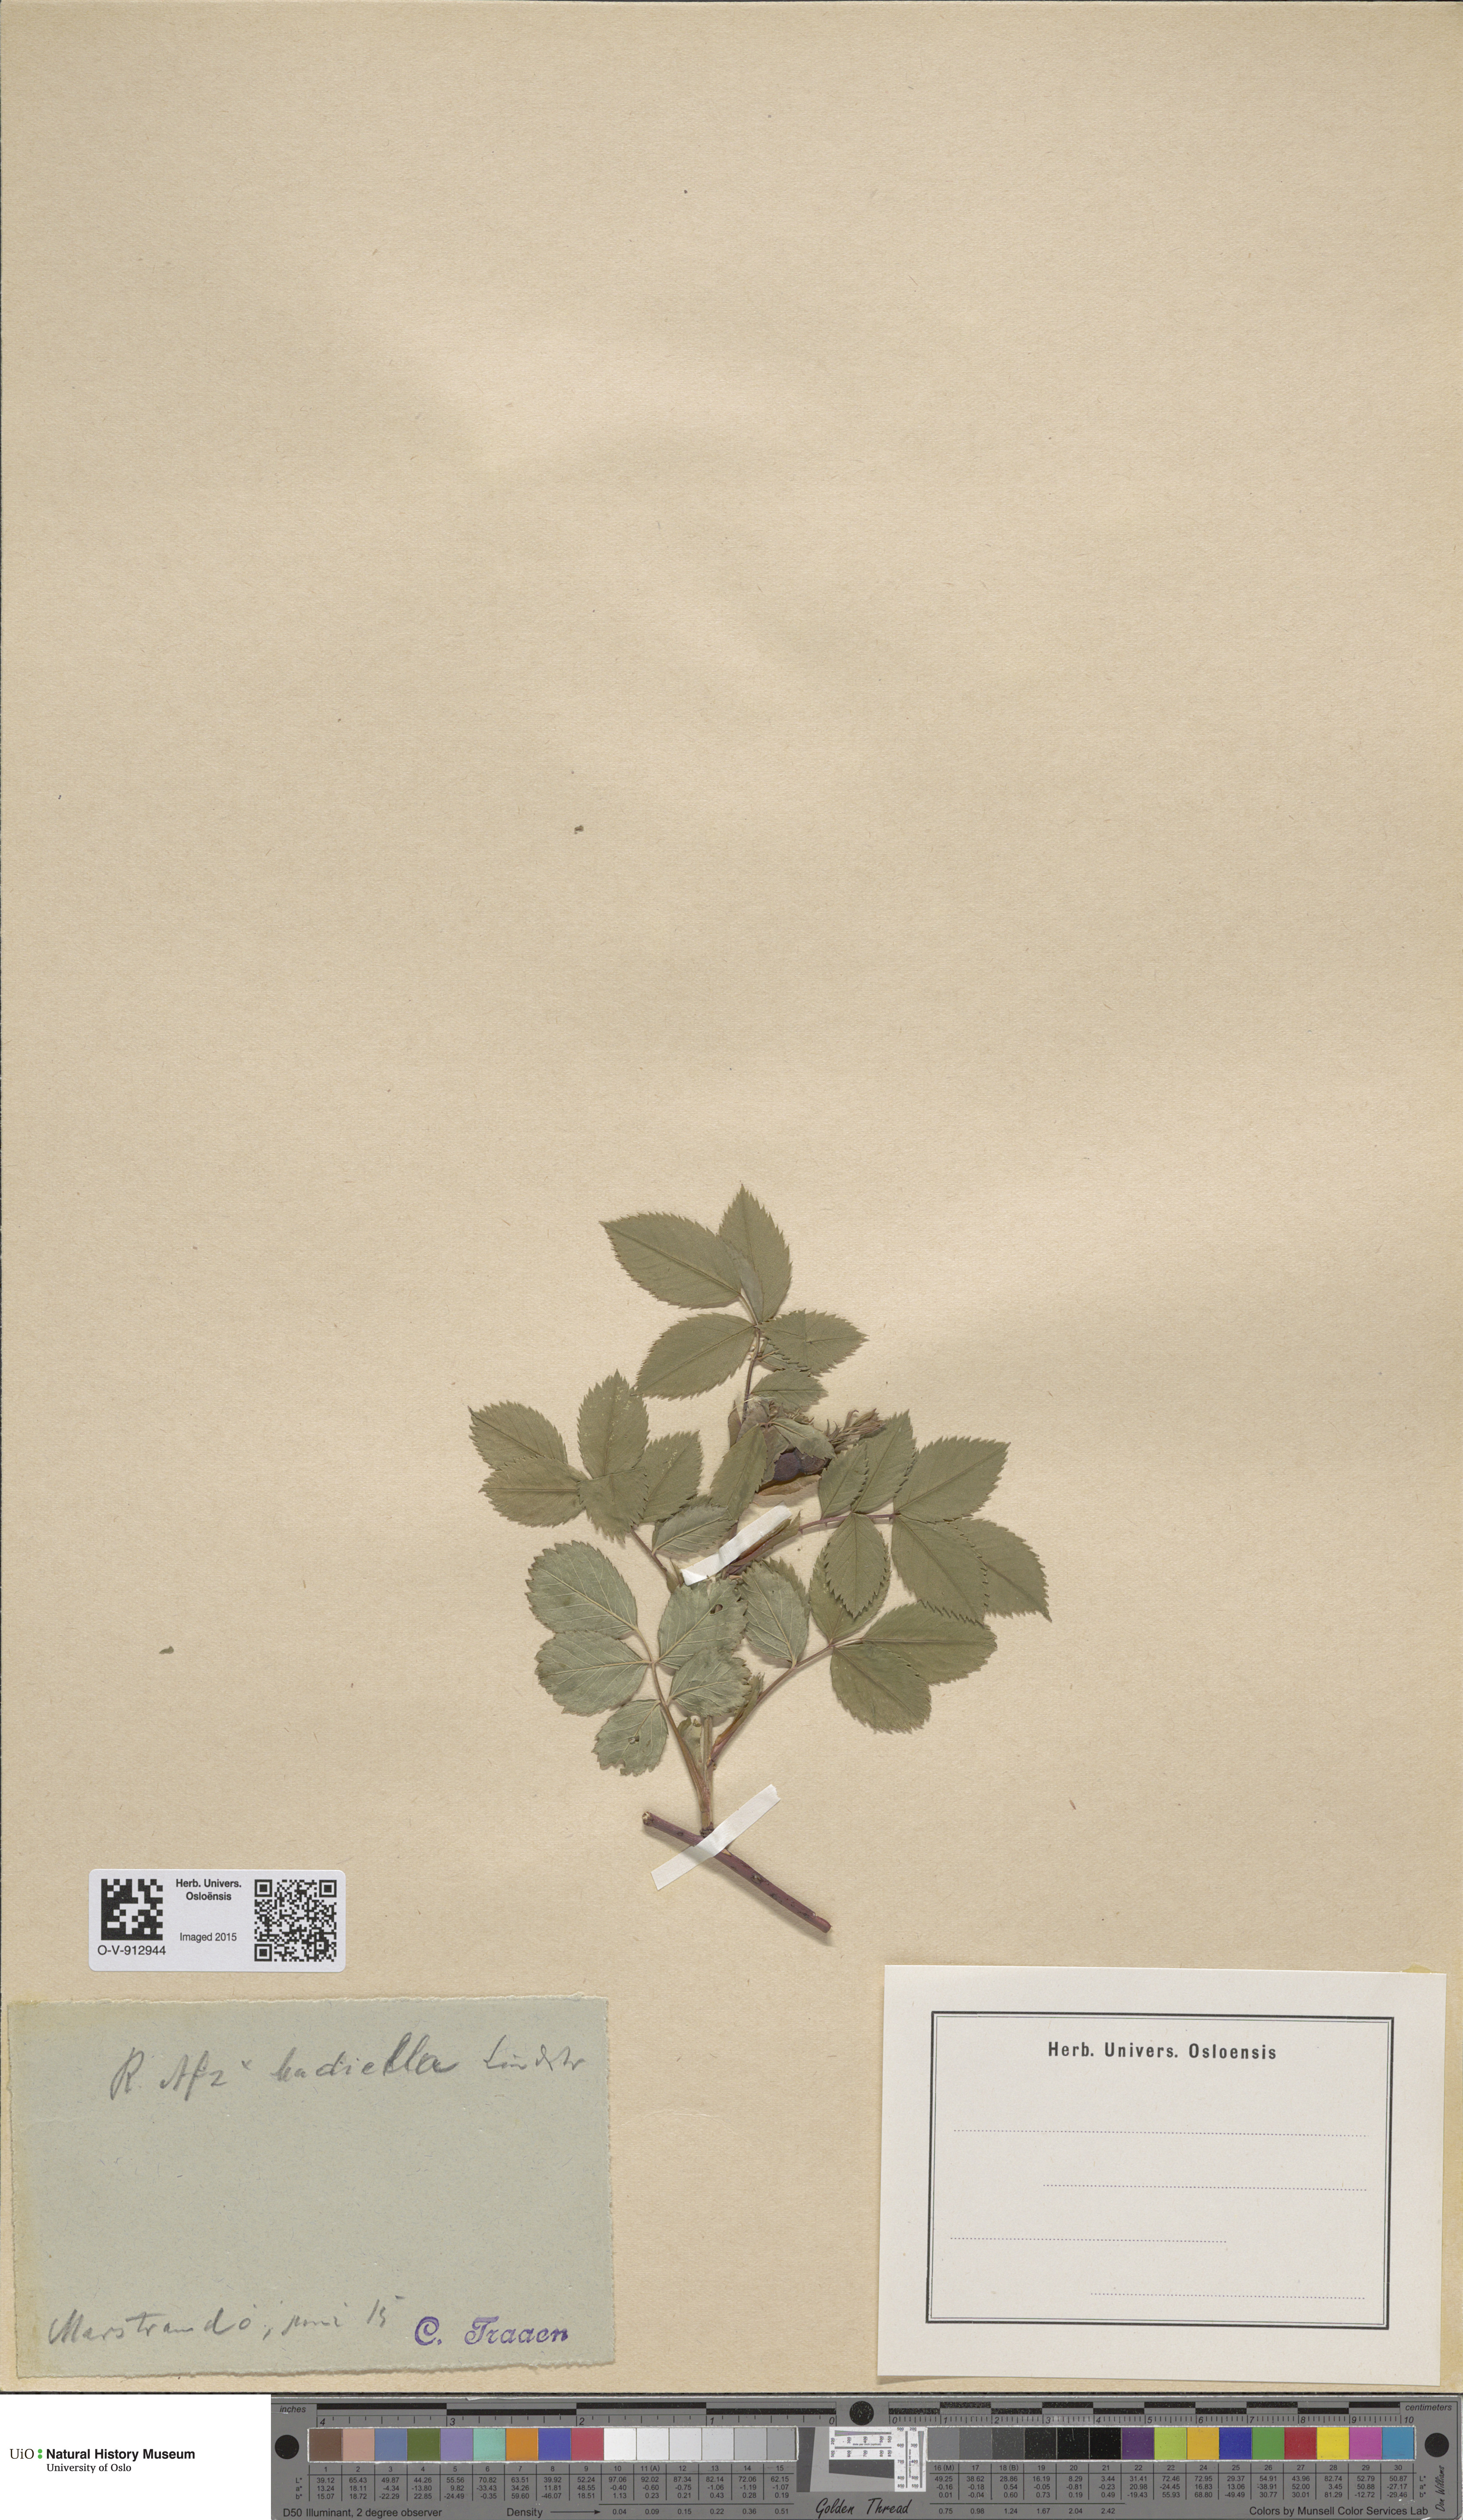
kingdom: Plantae
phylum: Tracheophyta
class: Magnoliopsida
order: Rosales
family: Rosaceae
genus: Rosa
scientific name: Rosa
